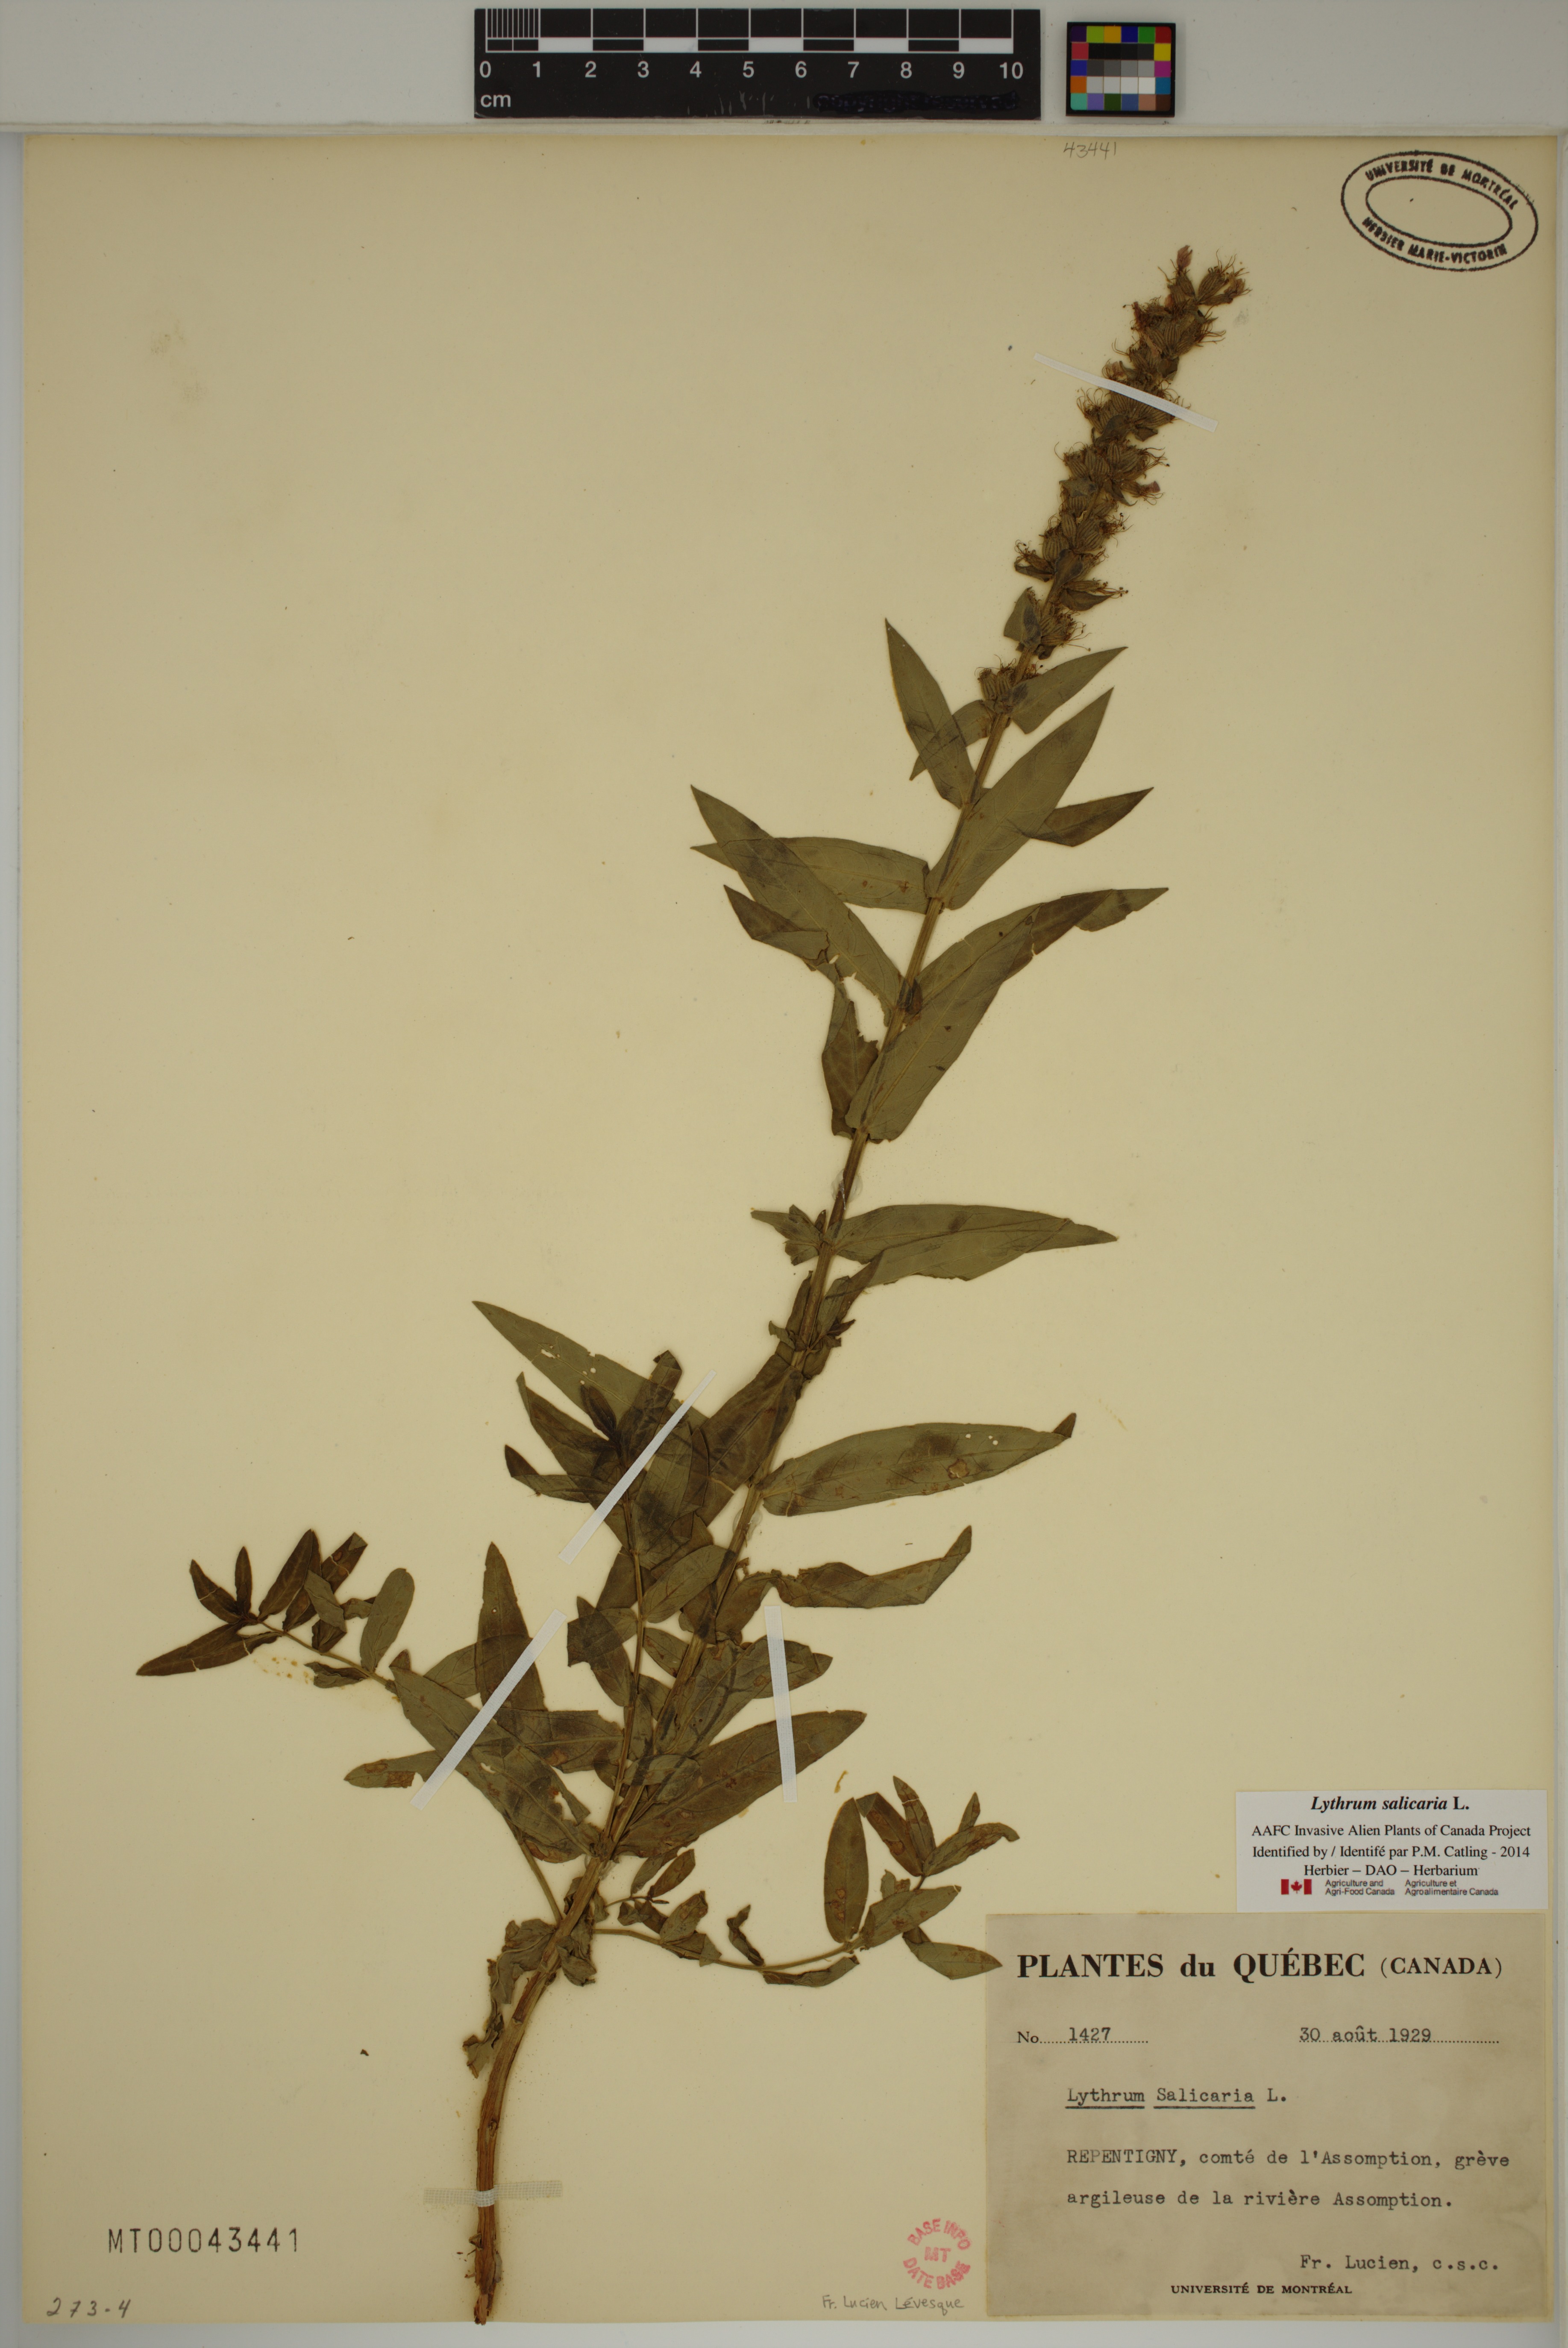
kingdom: Plantae
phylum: Tracheophyta
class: Magnoliopsida
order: Myrtales
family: Lythraceae
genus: Lythrum
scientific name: Lythrum salicaria
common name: Purple loosestrife
